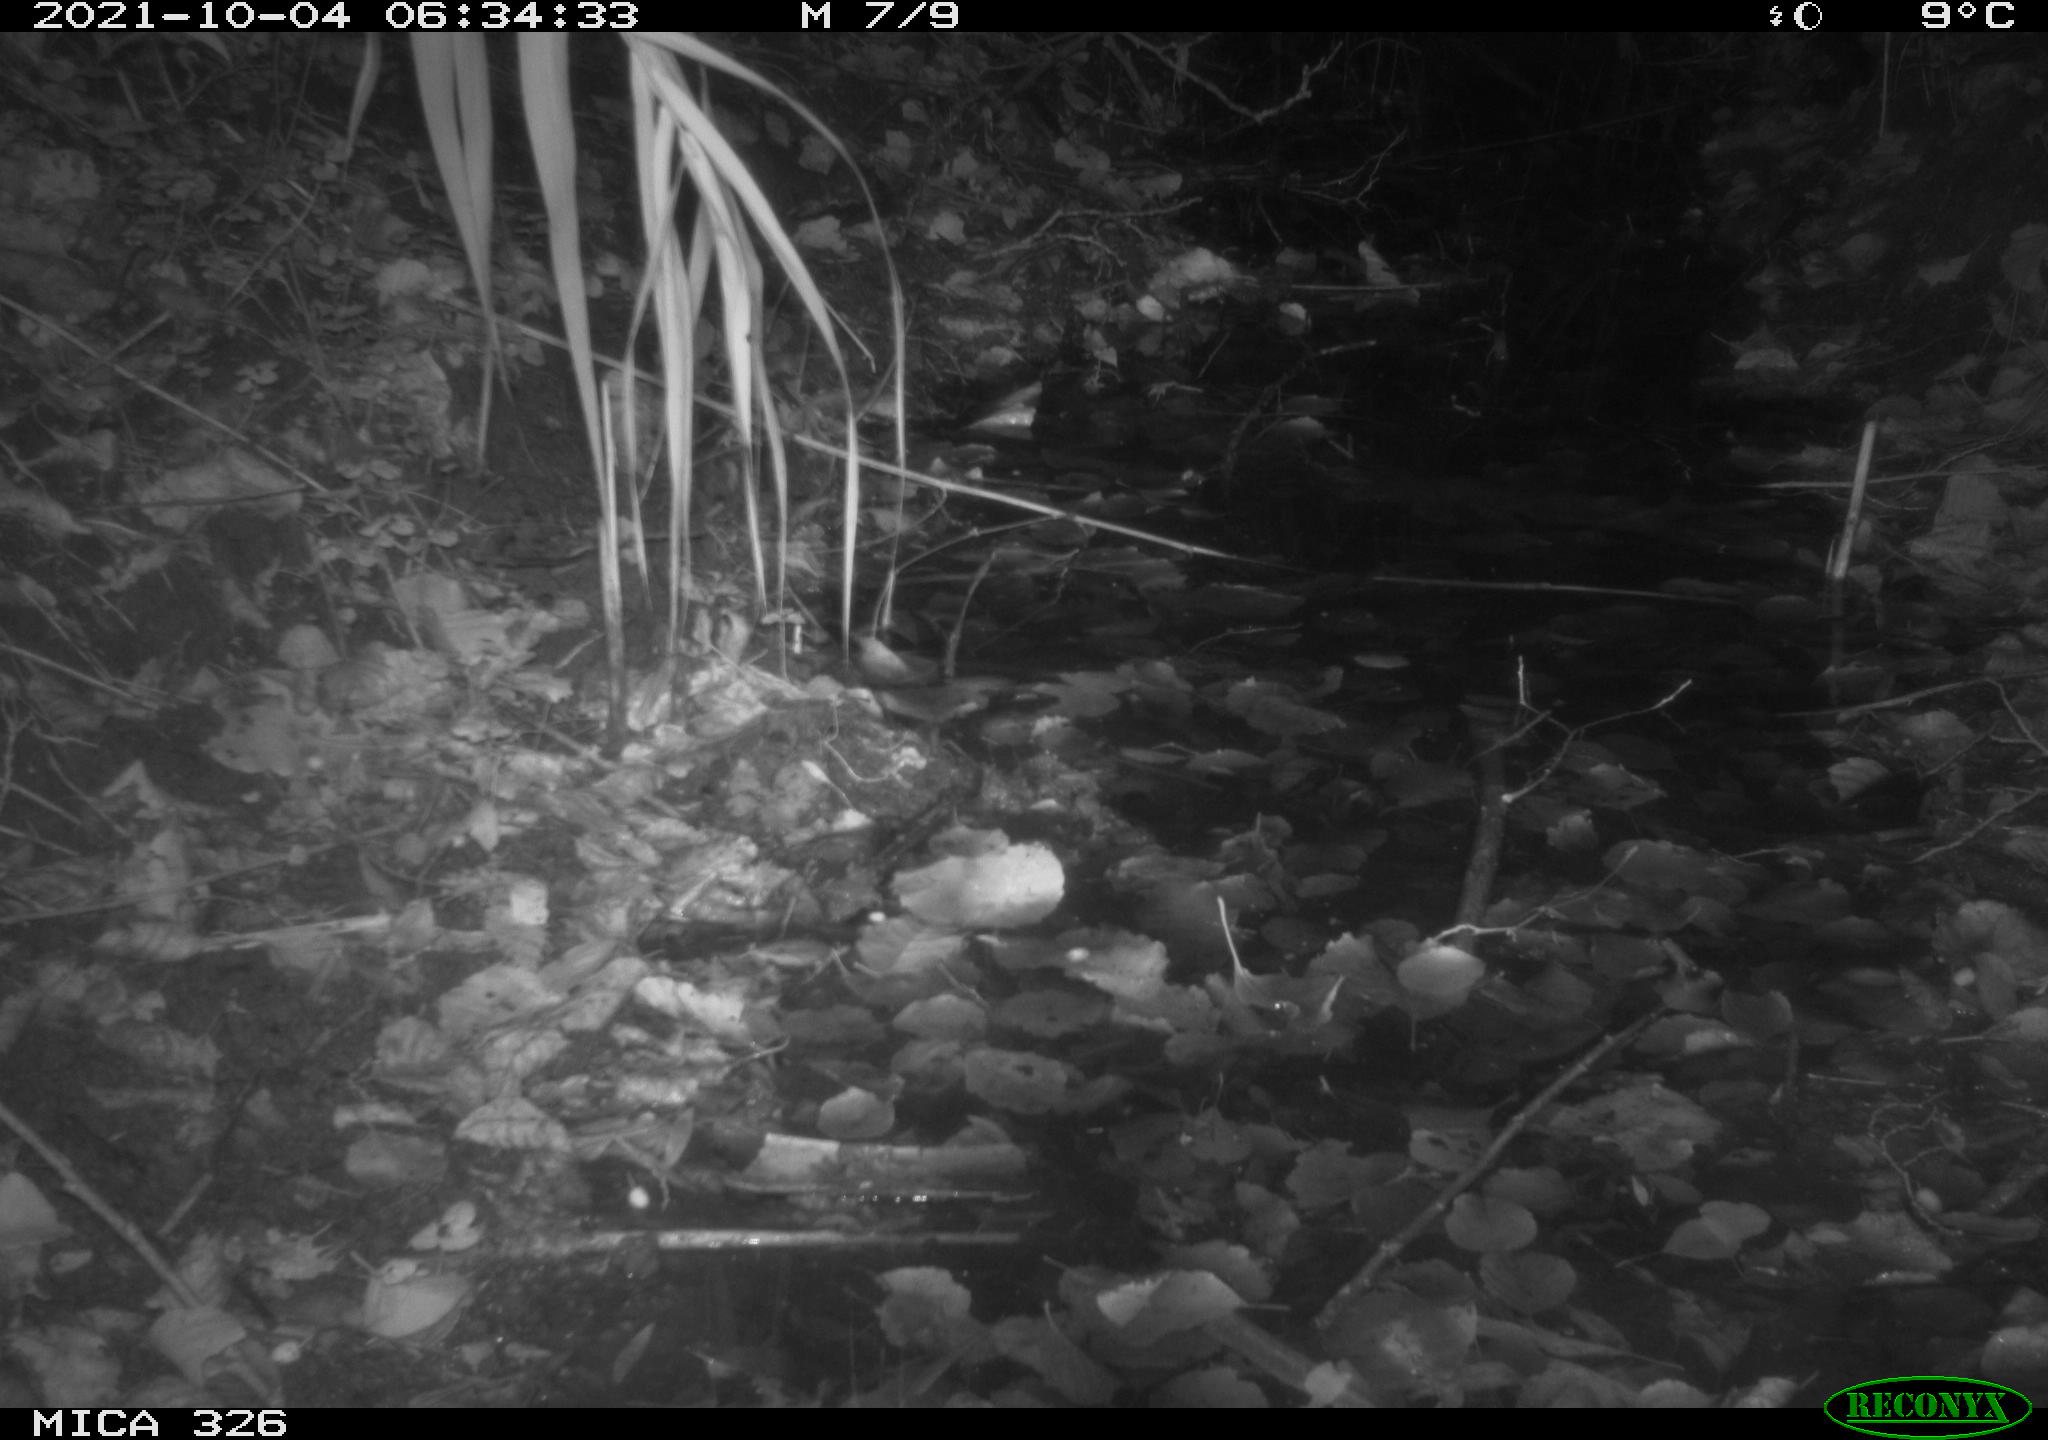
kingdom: Animalia
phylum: Chordata
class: Mammalia
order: Rodentia
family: Muridae
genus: Rattus
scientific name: Rattus norvegicus
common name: Brown rat
